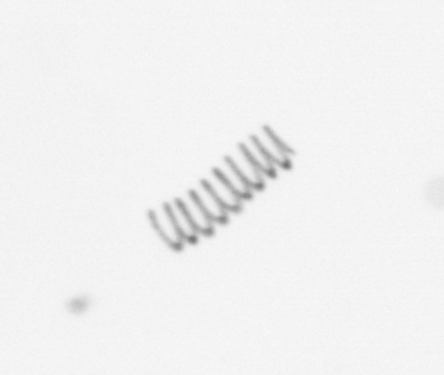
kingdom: Chromista
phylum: Ochrophyta
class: Bacillariophyceae
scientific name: Bacillariophyceae
